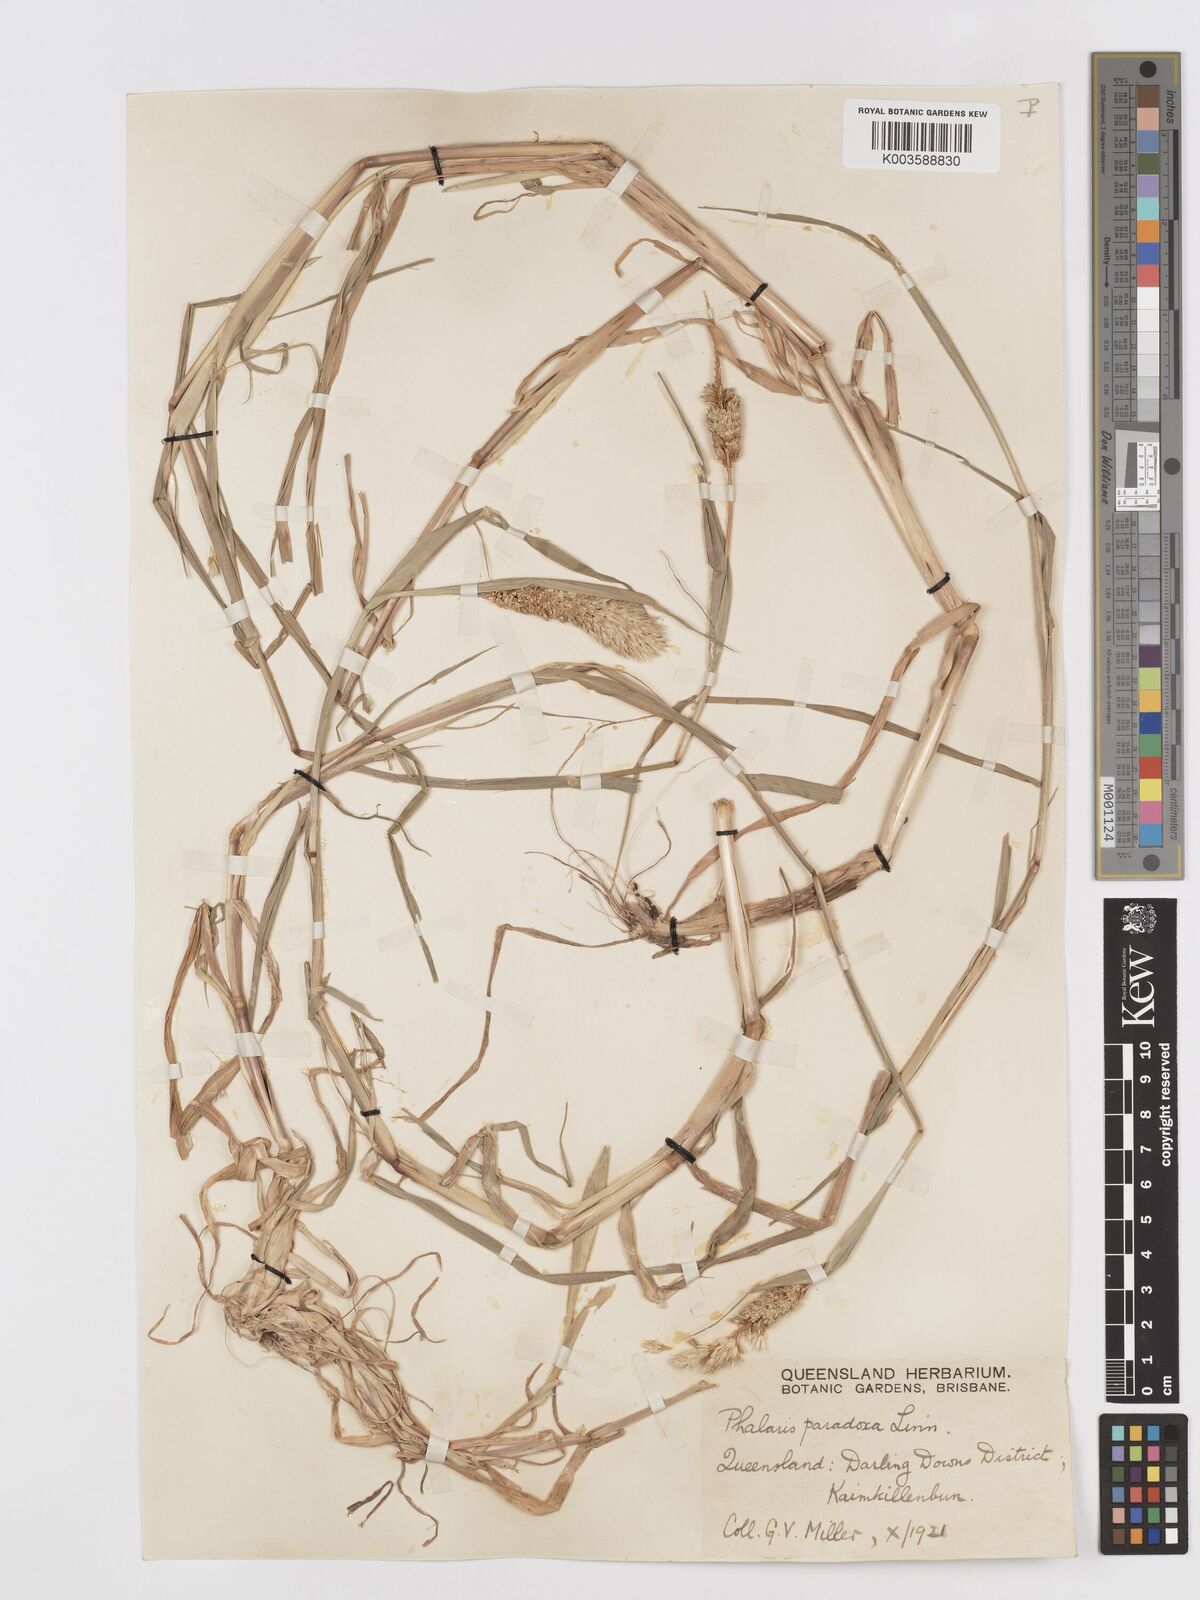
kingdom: Plantae
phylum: Tracheophyta
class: Liliopsida
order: Poales
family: Poaceae
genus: Phalaris
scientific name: Phalaris paradoxa
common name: Awned canary-grass
